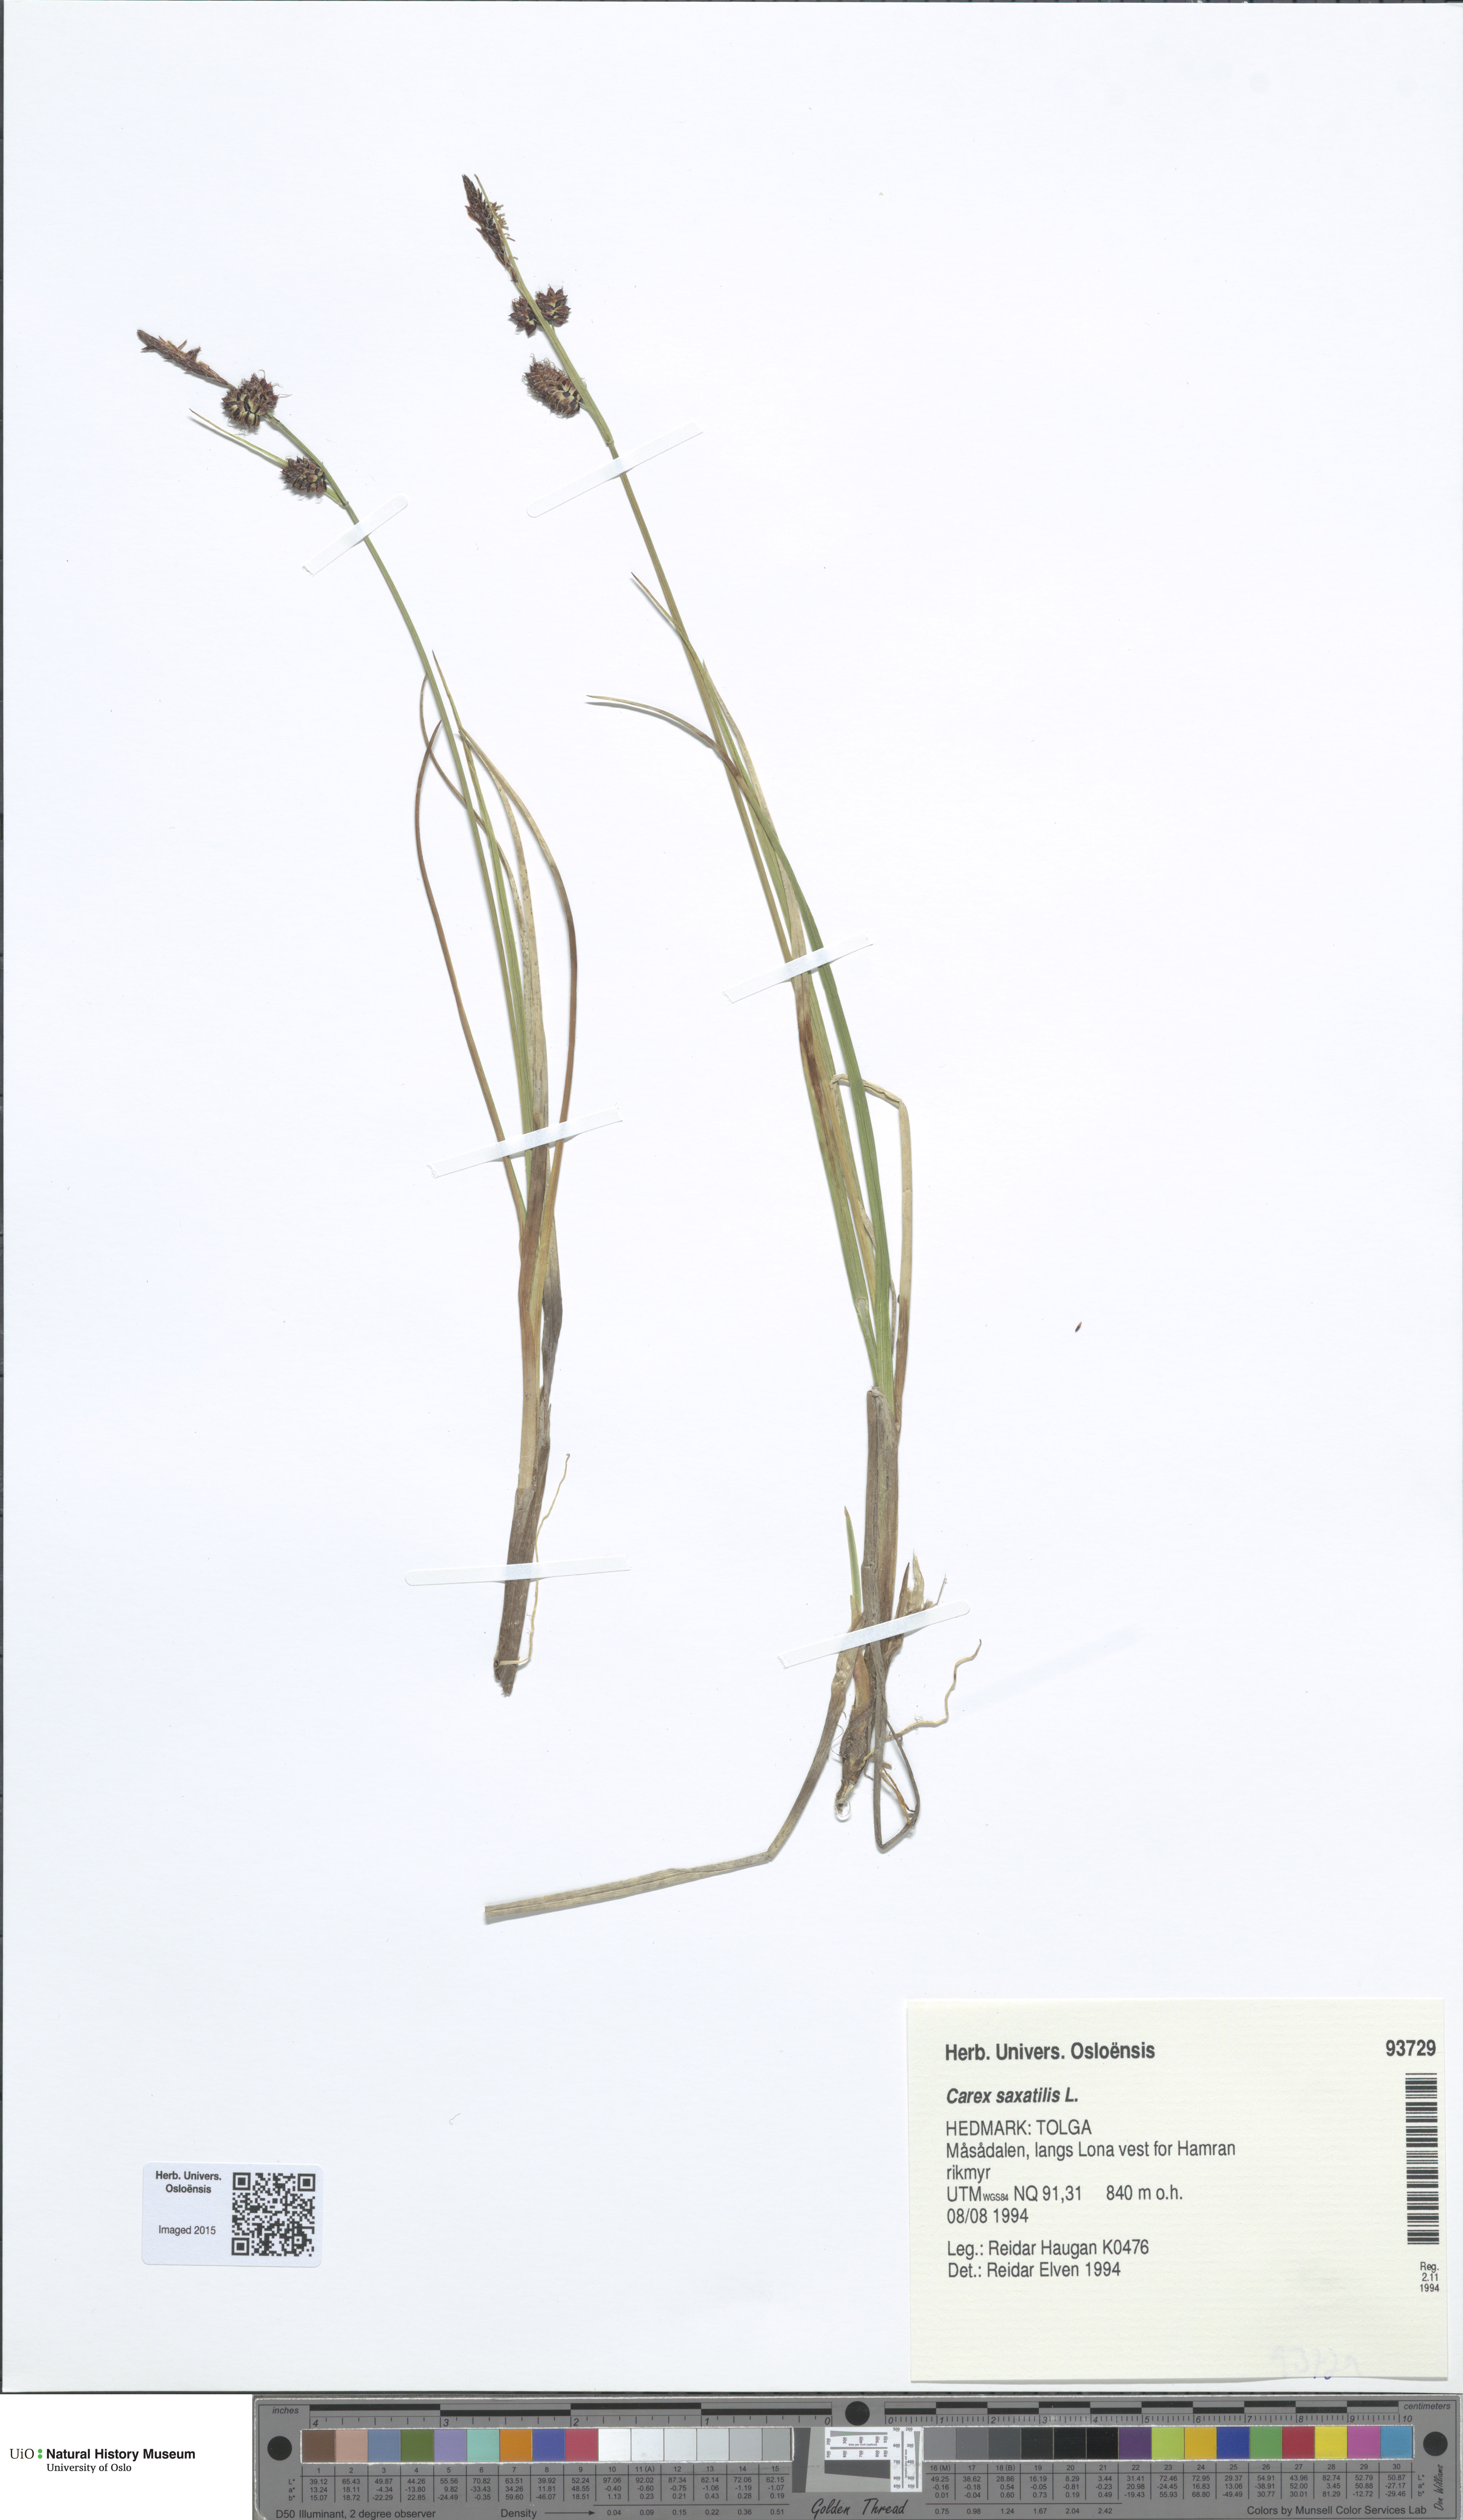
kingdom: Plantae
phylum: Tracheophyta
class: Liliopsida
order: Poales
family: Cyperaceae
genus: Carex
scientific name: Carex saxatilis
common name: Russet sedge
